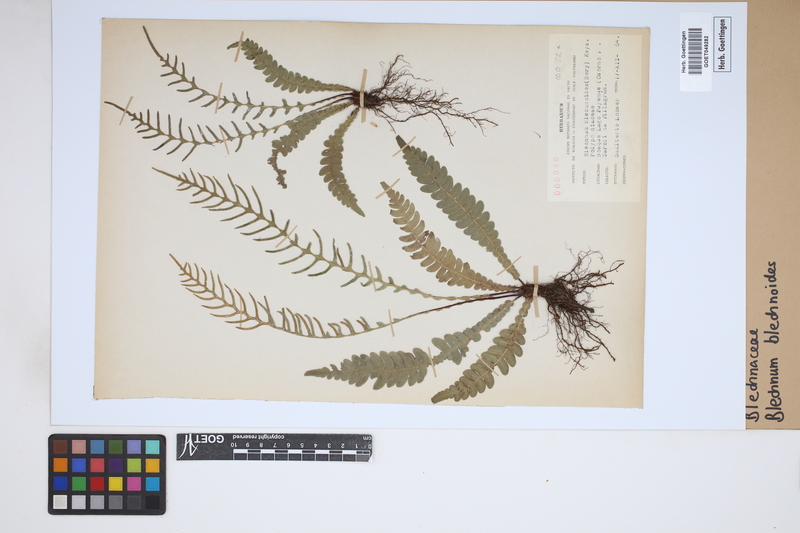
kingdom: Plantae
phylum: Tracheophyta
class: Polypodiopsida
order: Polypodiales
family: Blechnaceae
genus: Austroblechnum
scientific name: Austroblechnum leyboldtianum
